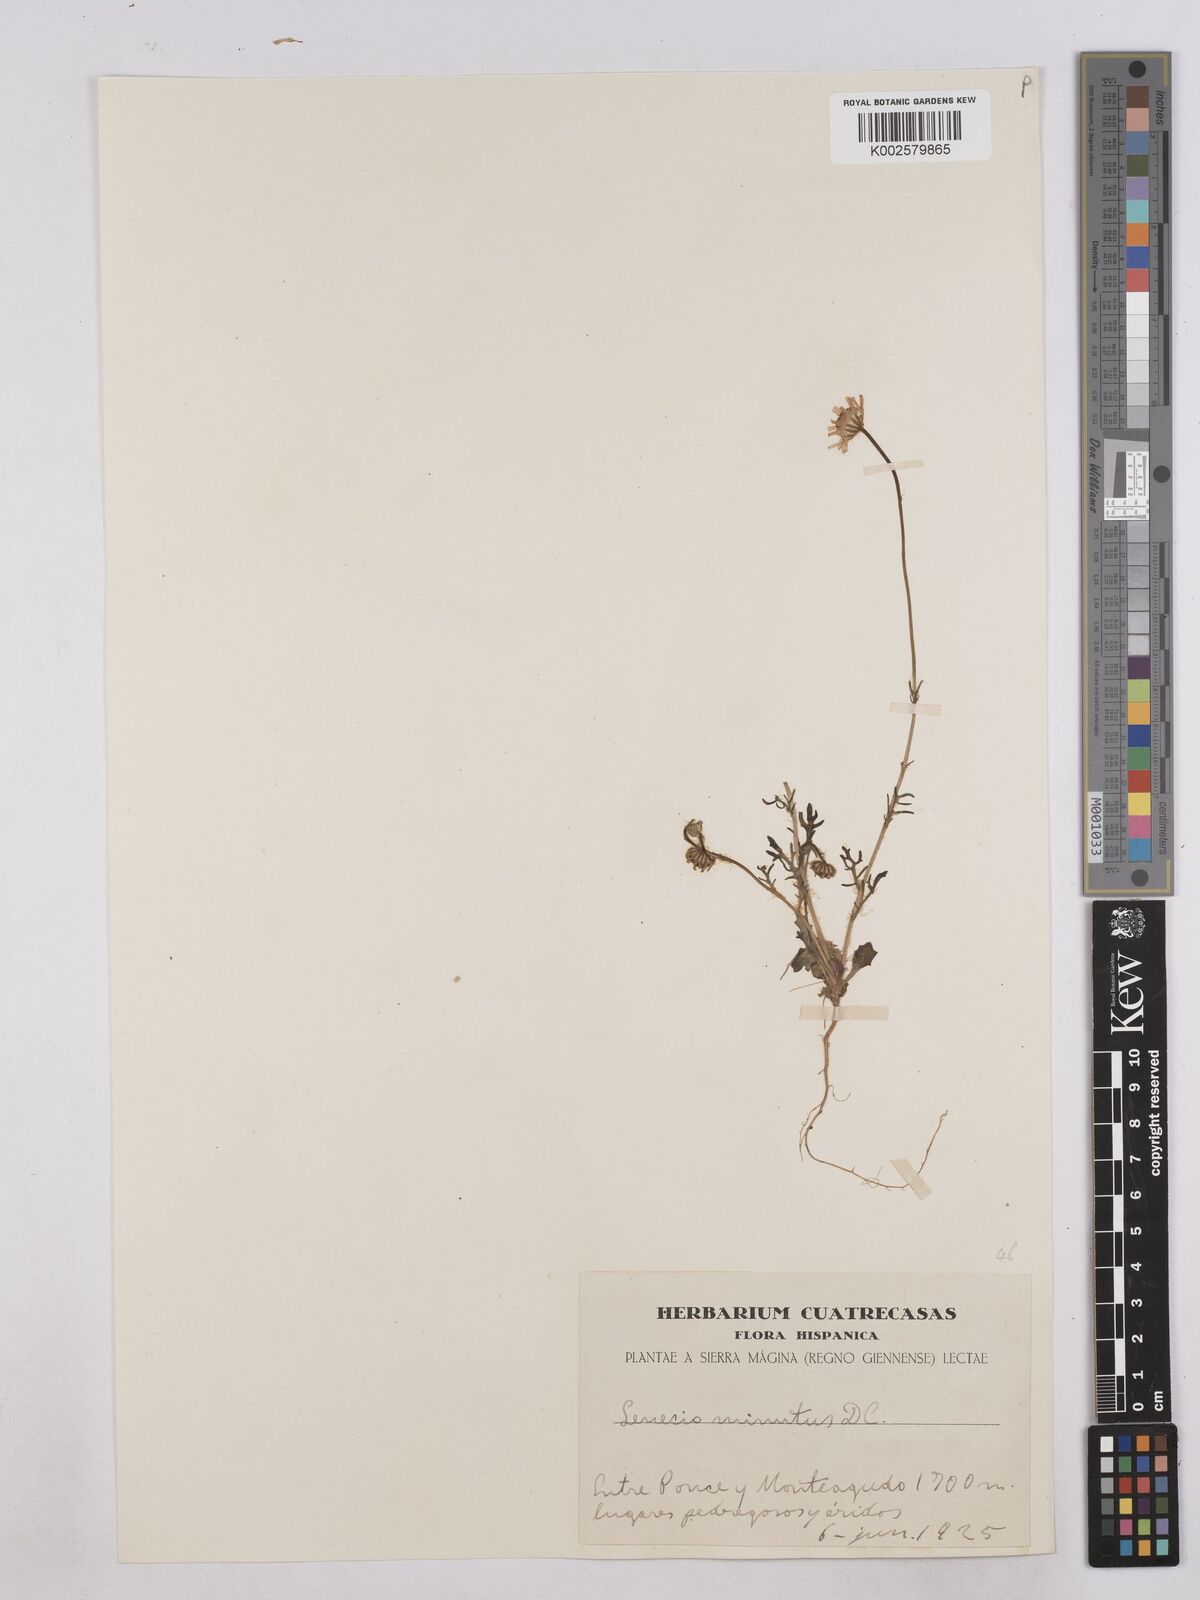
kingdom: Plantae
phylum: Tracheophyta
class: Magnoliopsida
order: Asterales
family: Asteraceae
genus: Jacobaea
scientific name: Jacobaea minuta
